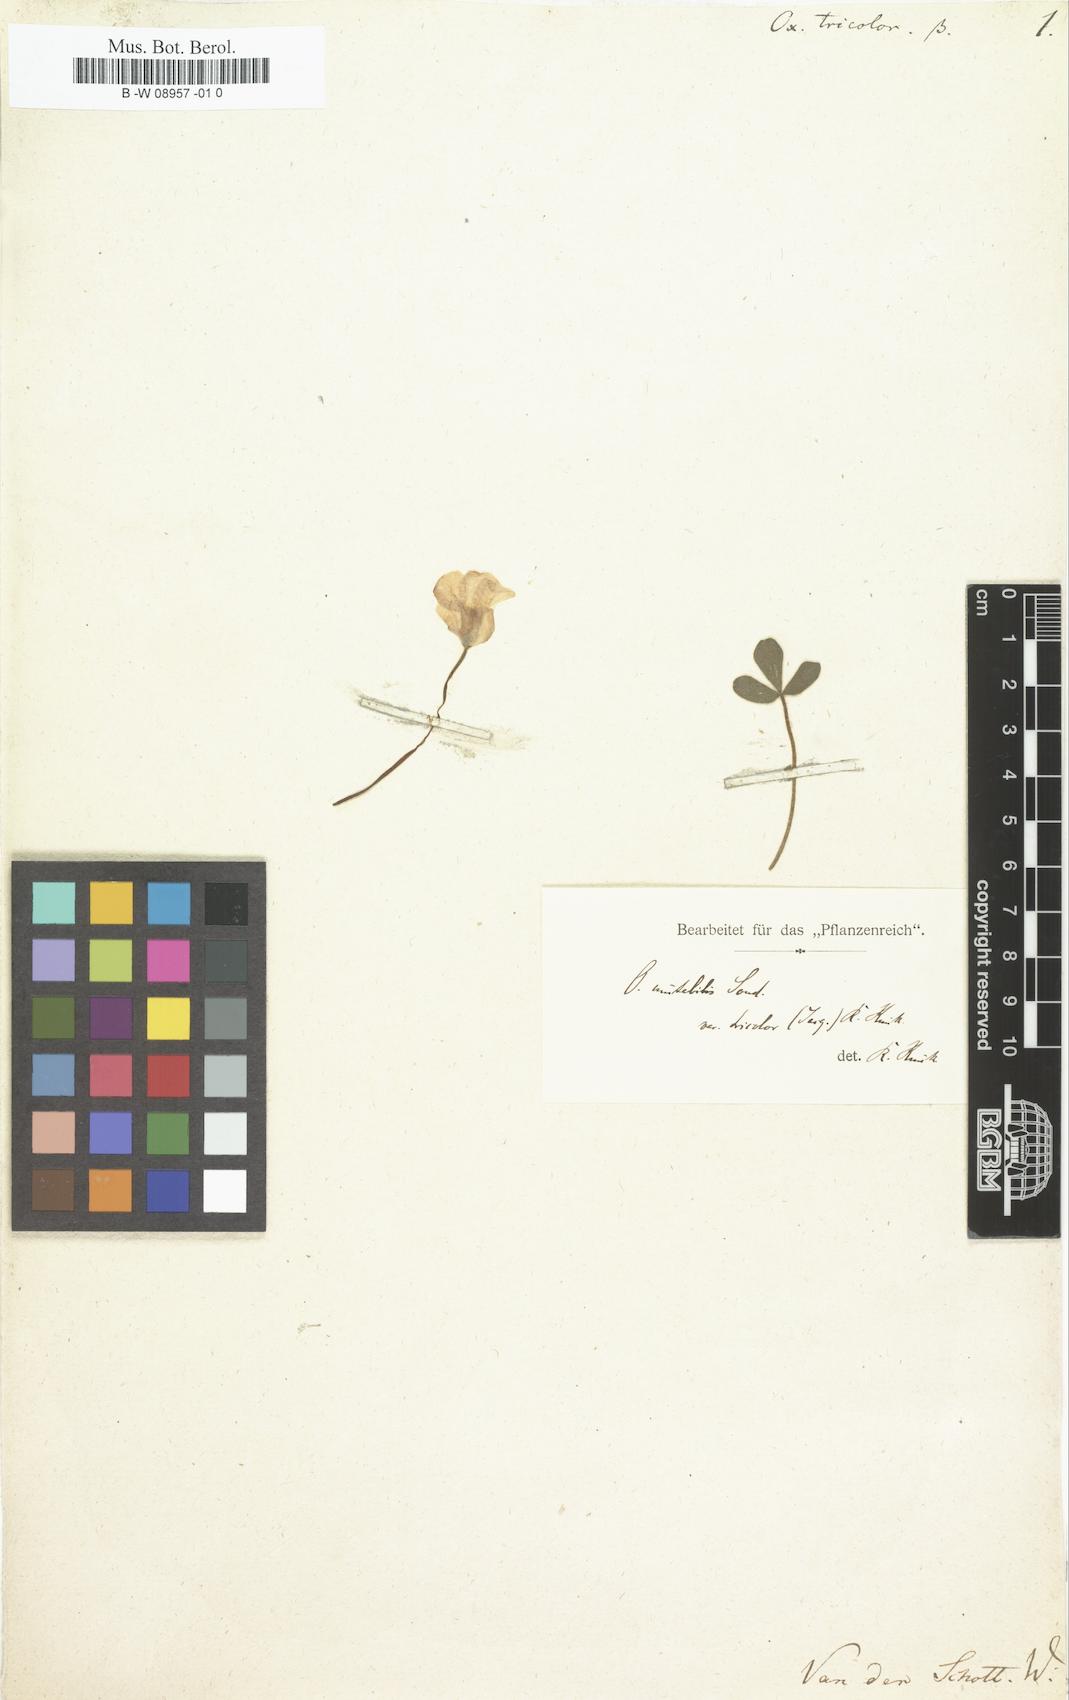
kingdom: Plantae
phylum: Tracheophyta
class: Magnoliopsida
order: Oxalidales
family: Oxalidaceae
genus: Oxalis
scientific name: Oxalis
